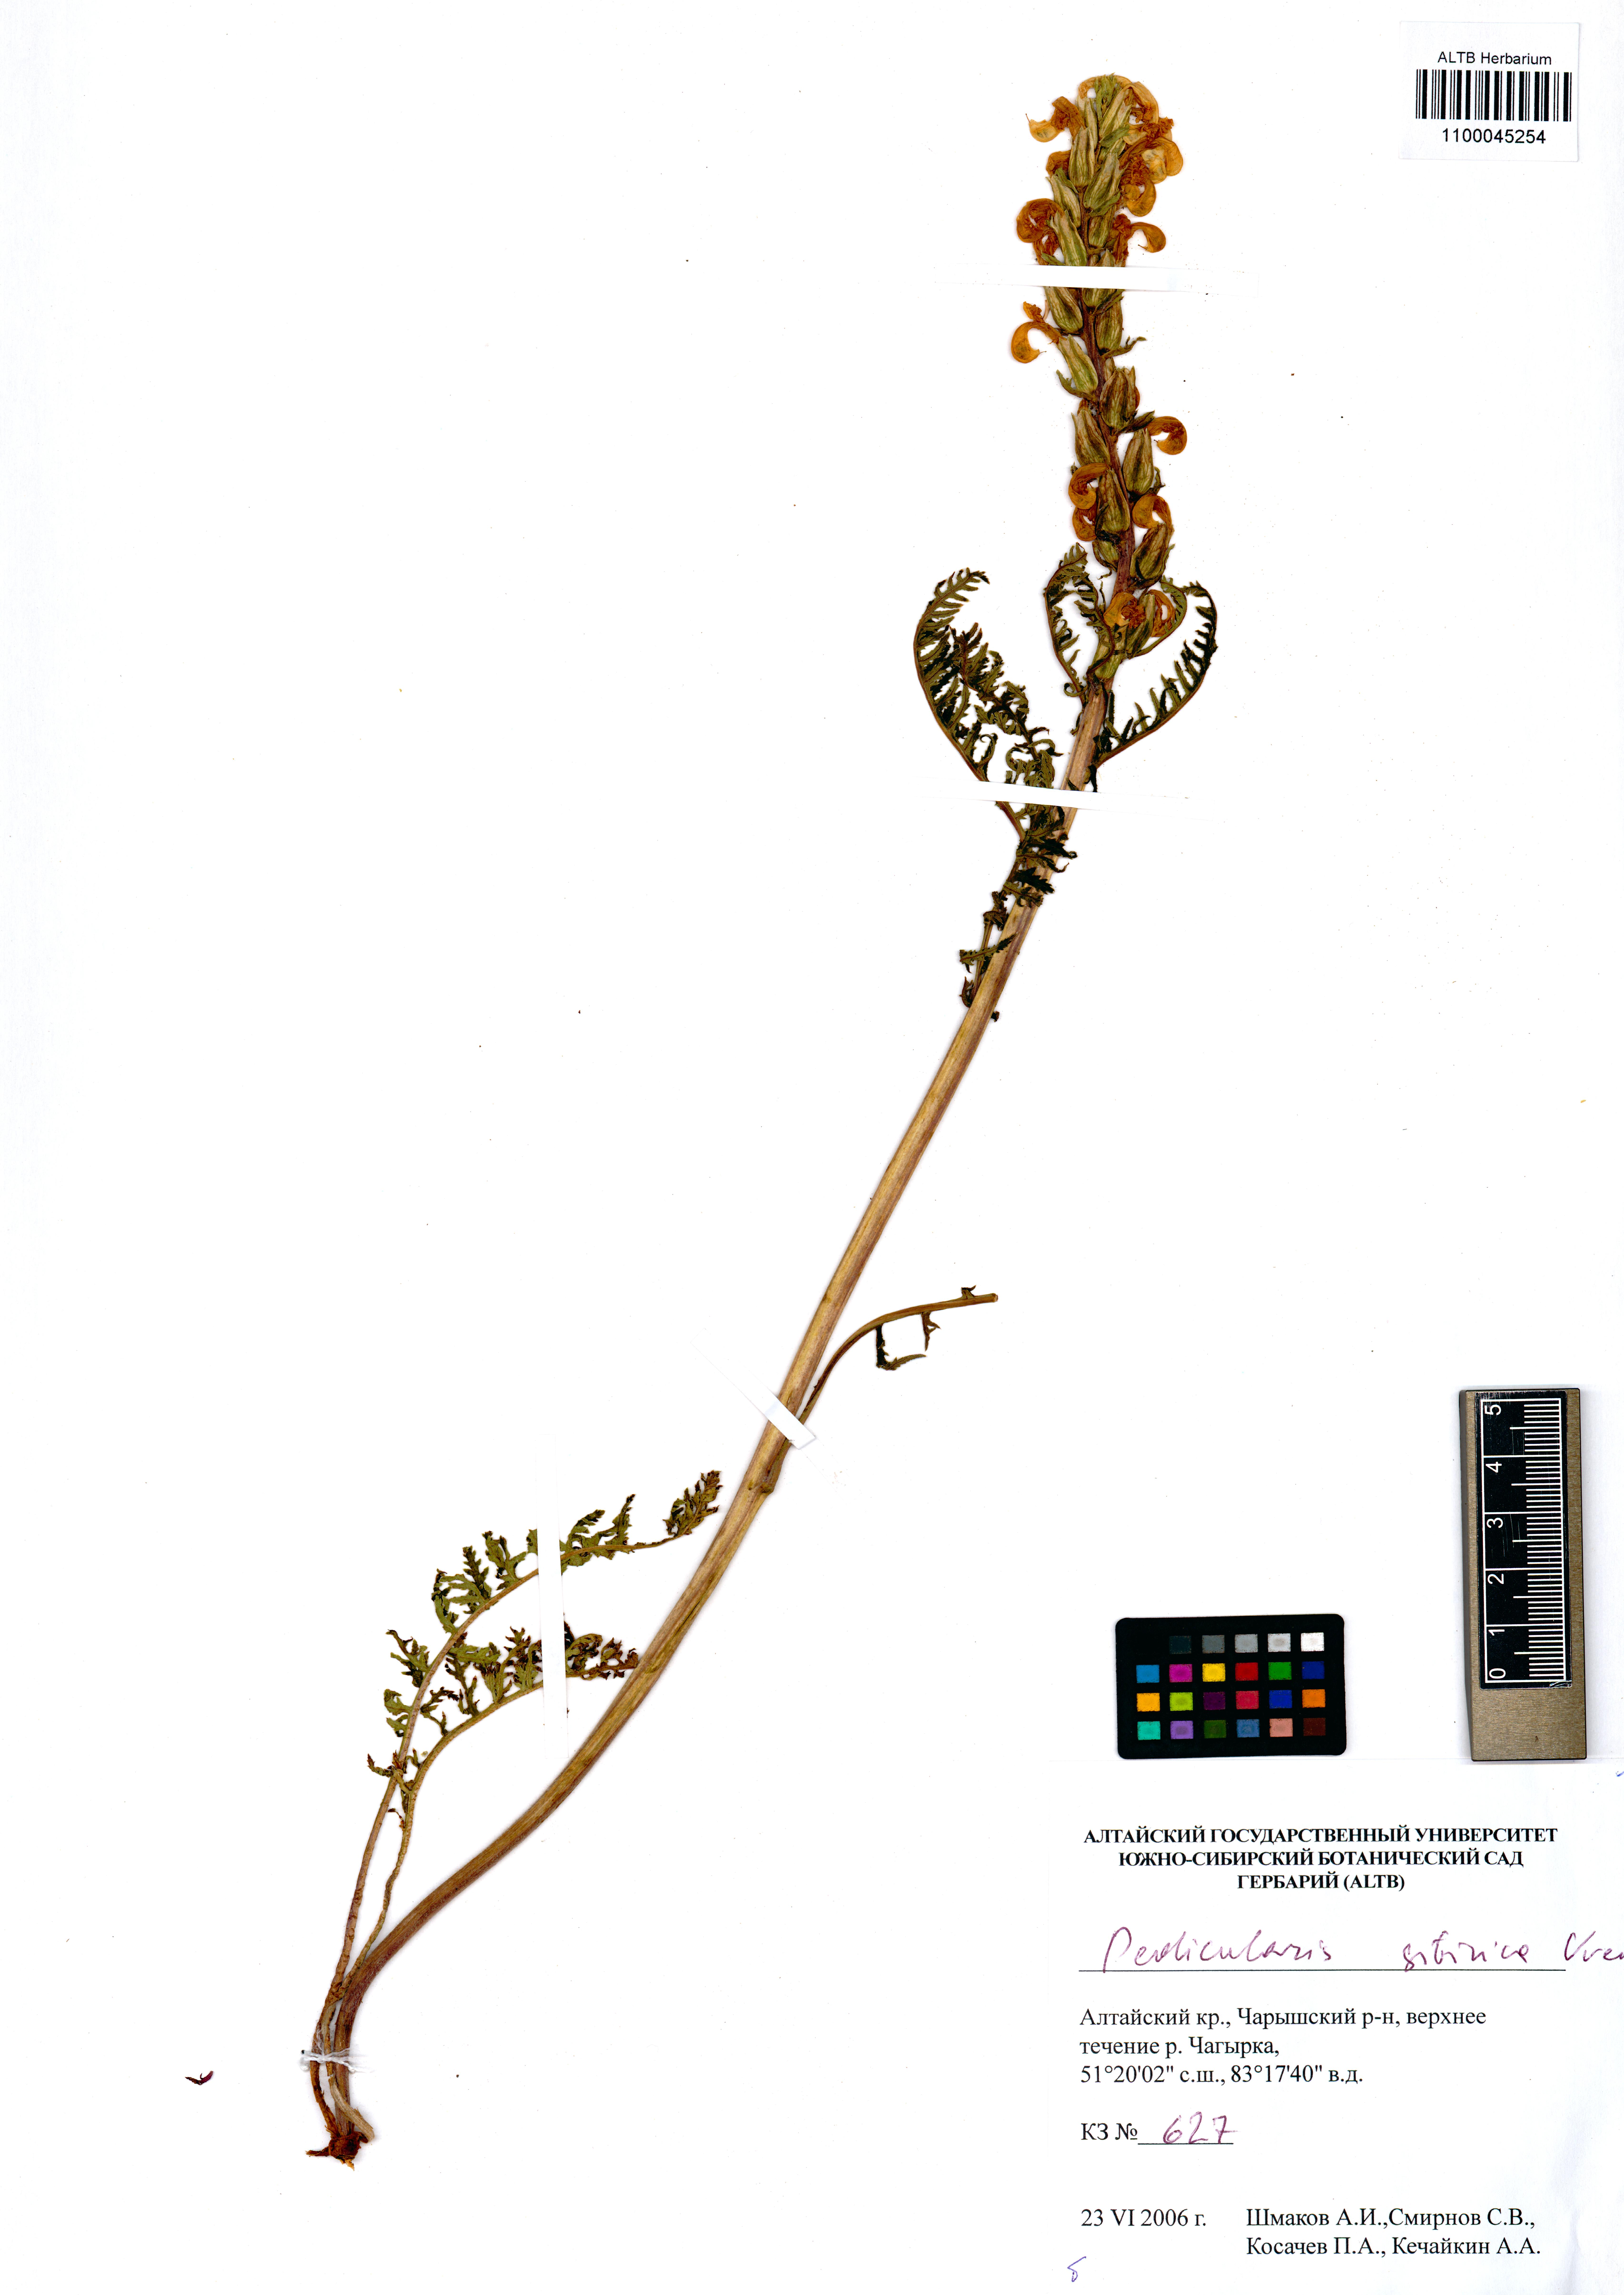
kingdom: Plantae
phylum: Tracheophyta
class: Magnoliopsida
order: Lamiales
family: Orobanchaceae
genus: Pedicularis
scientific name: Pedicularis sibirica
